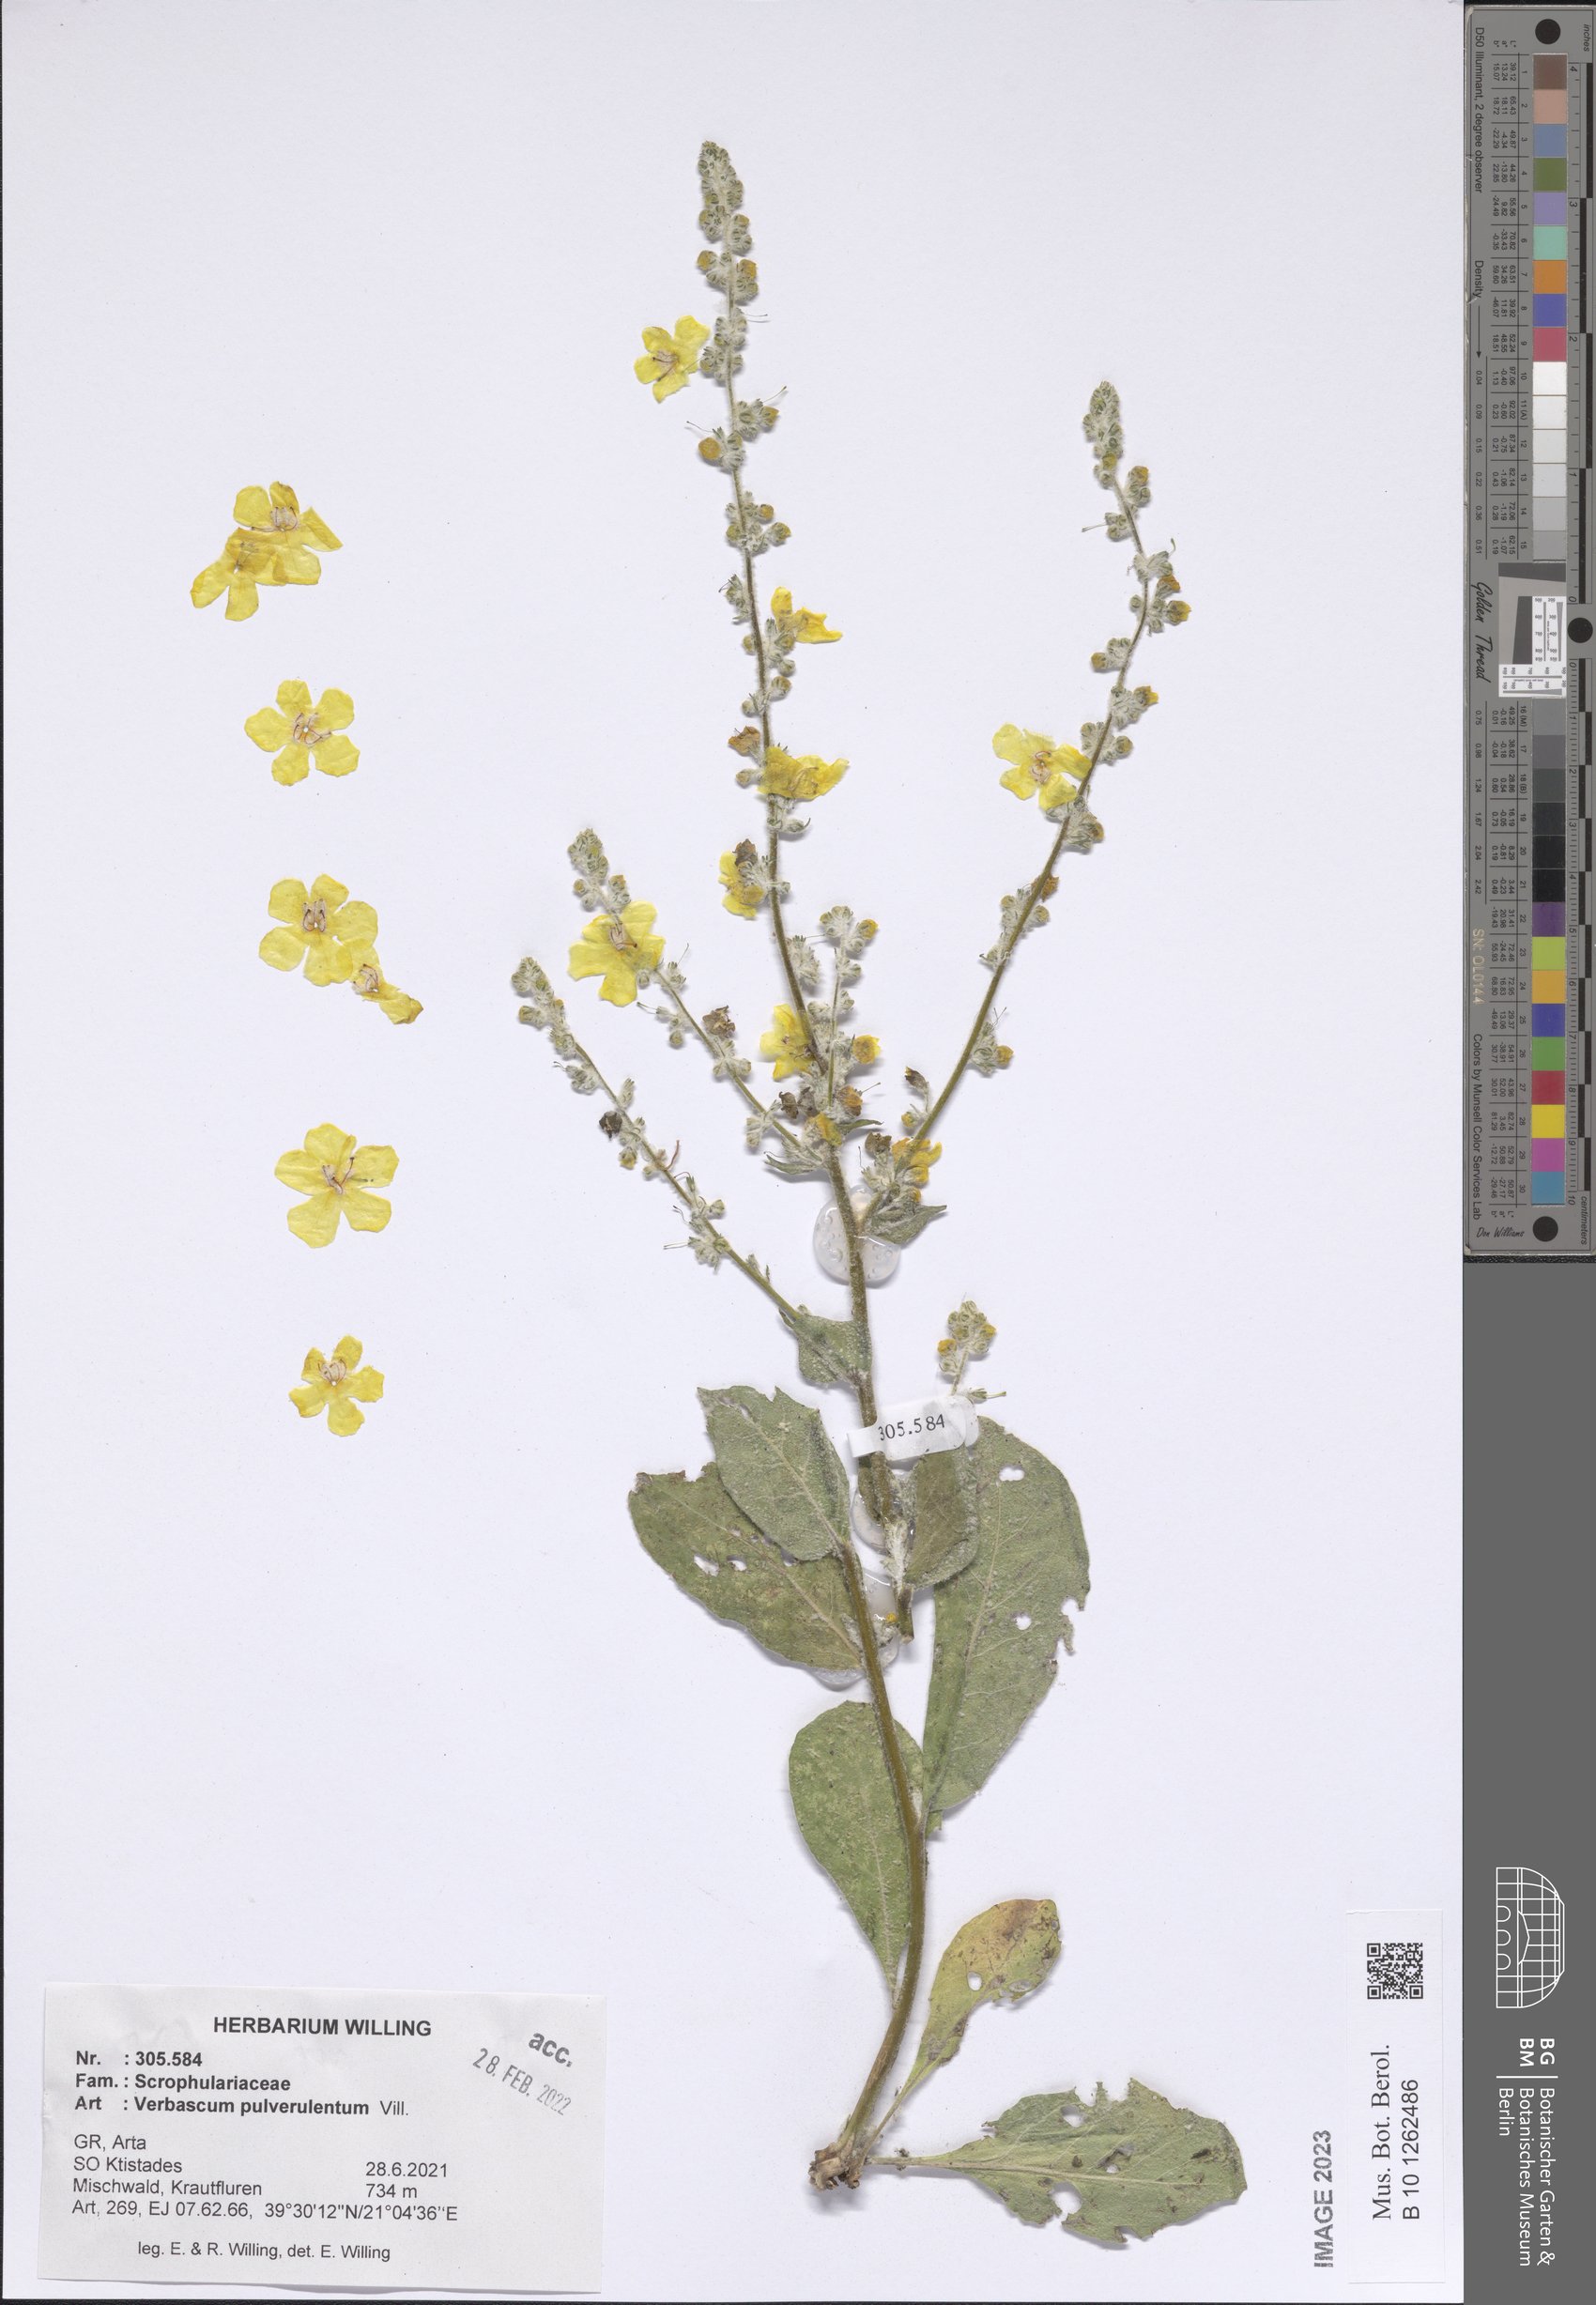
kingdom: Plantae
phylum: Tracheophyta
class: Magnoliopsida
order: Lamiales
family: Scrophulariaceae
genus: Verbascum
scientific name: Verbascum pulverulentum
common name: Broad-leaf mullein
